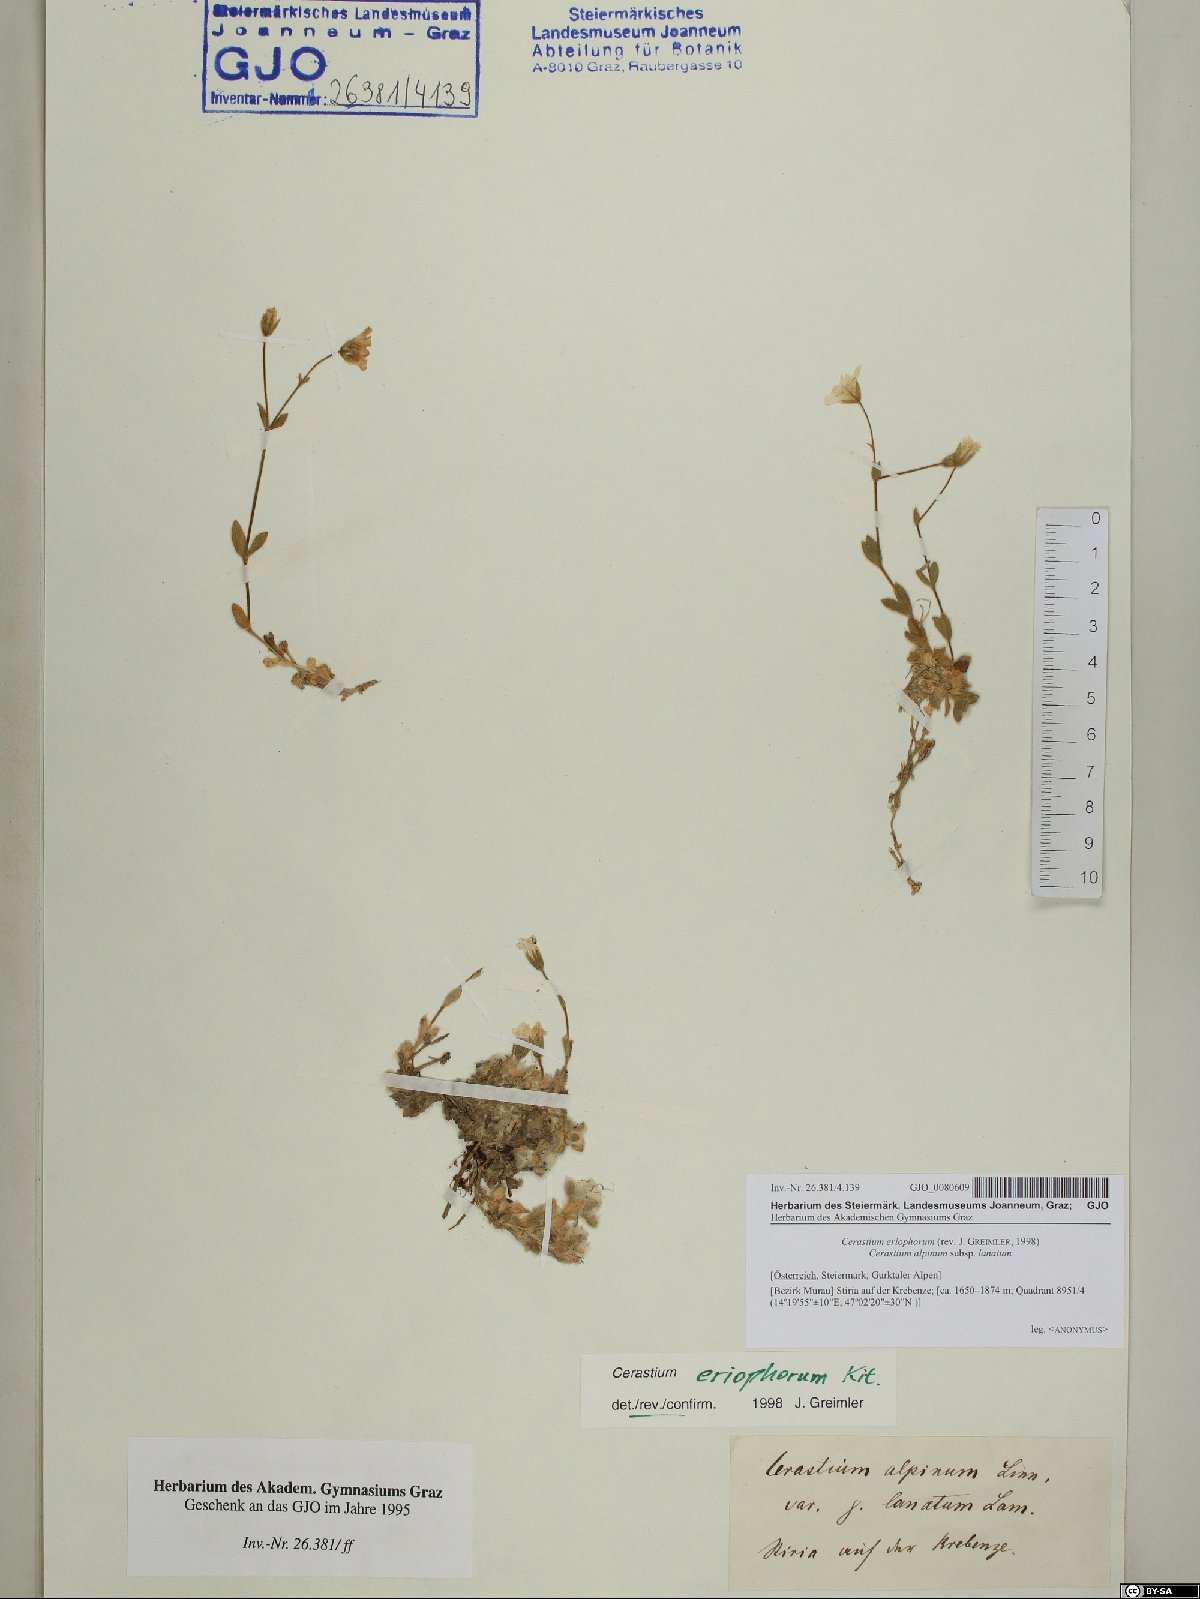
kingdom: Plantae
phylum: Tracheophyta
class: Magnoliopsida
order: Caryophyllales
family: Caryophyllaceae
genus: Cerastium
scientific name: Cerastium eriophorum
